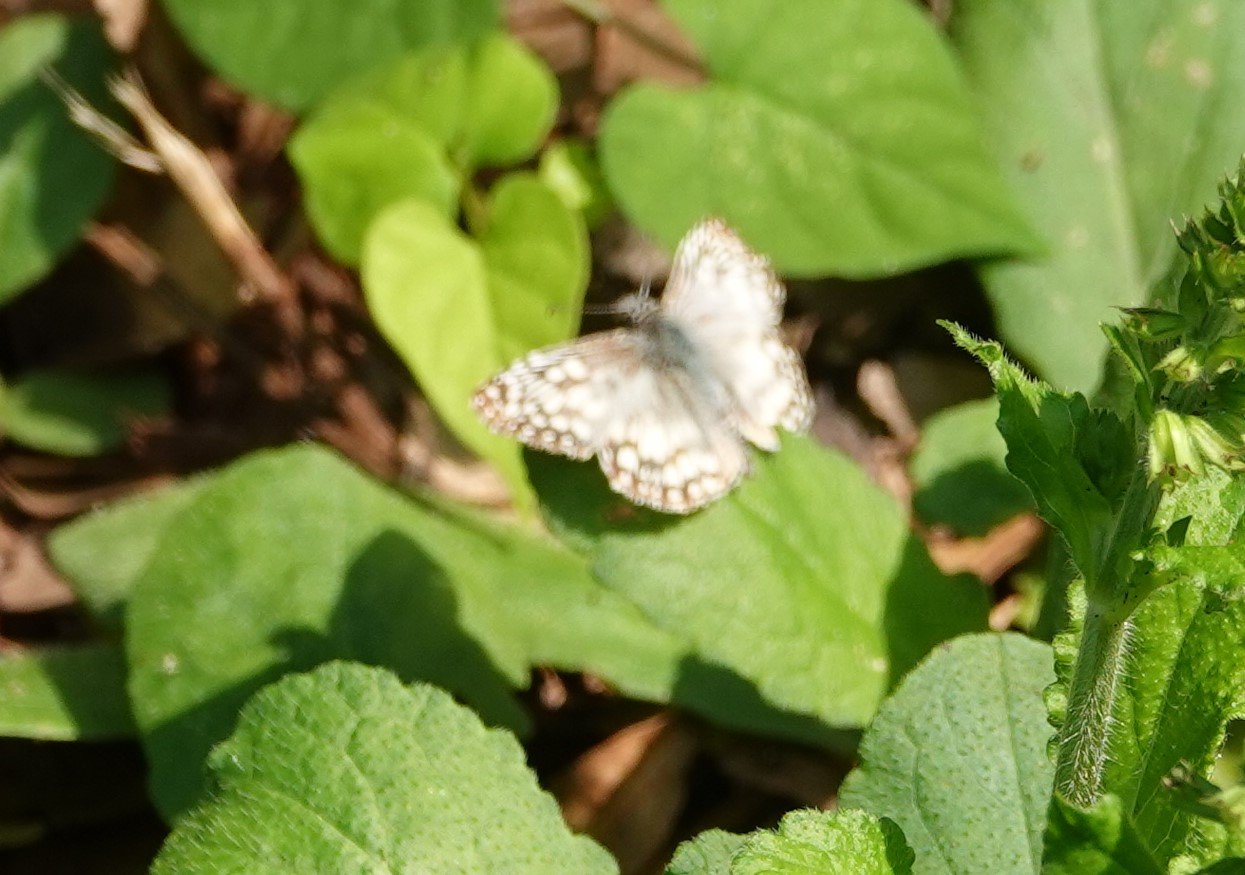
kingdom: Animalia
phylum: Arthropoda
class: Insecta
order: Lepidoptera
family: Hesperiidae
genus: Pyrgus
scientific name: Pyrgus oileus
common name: Tropical Checkered-Skipper
